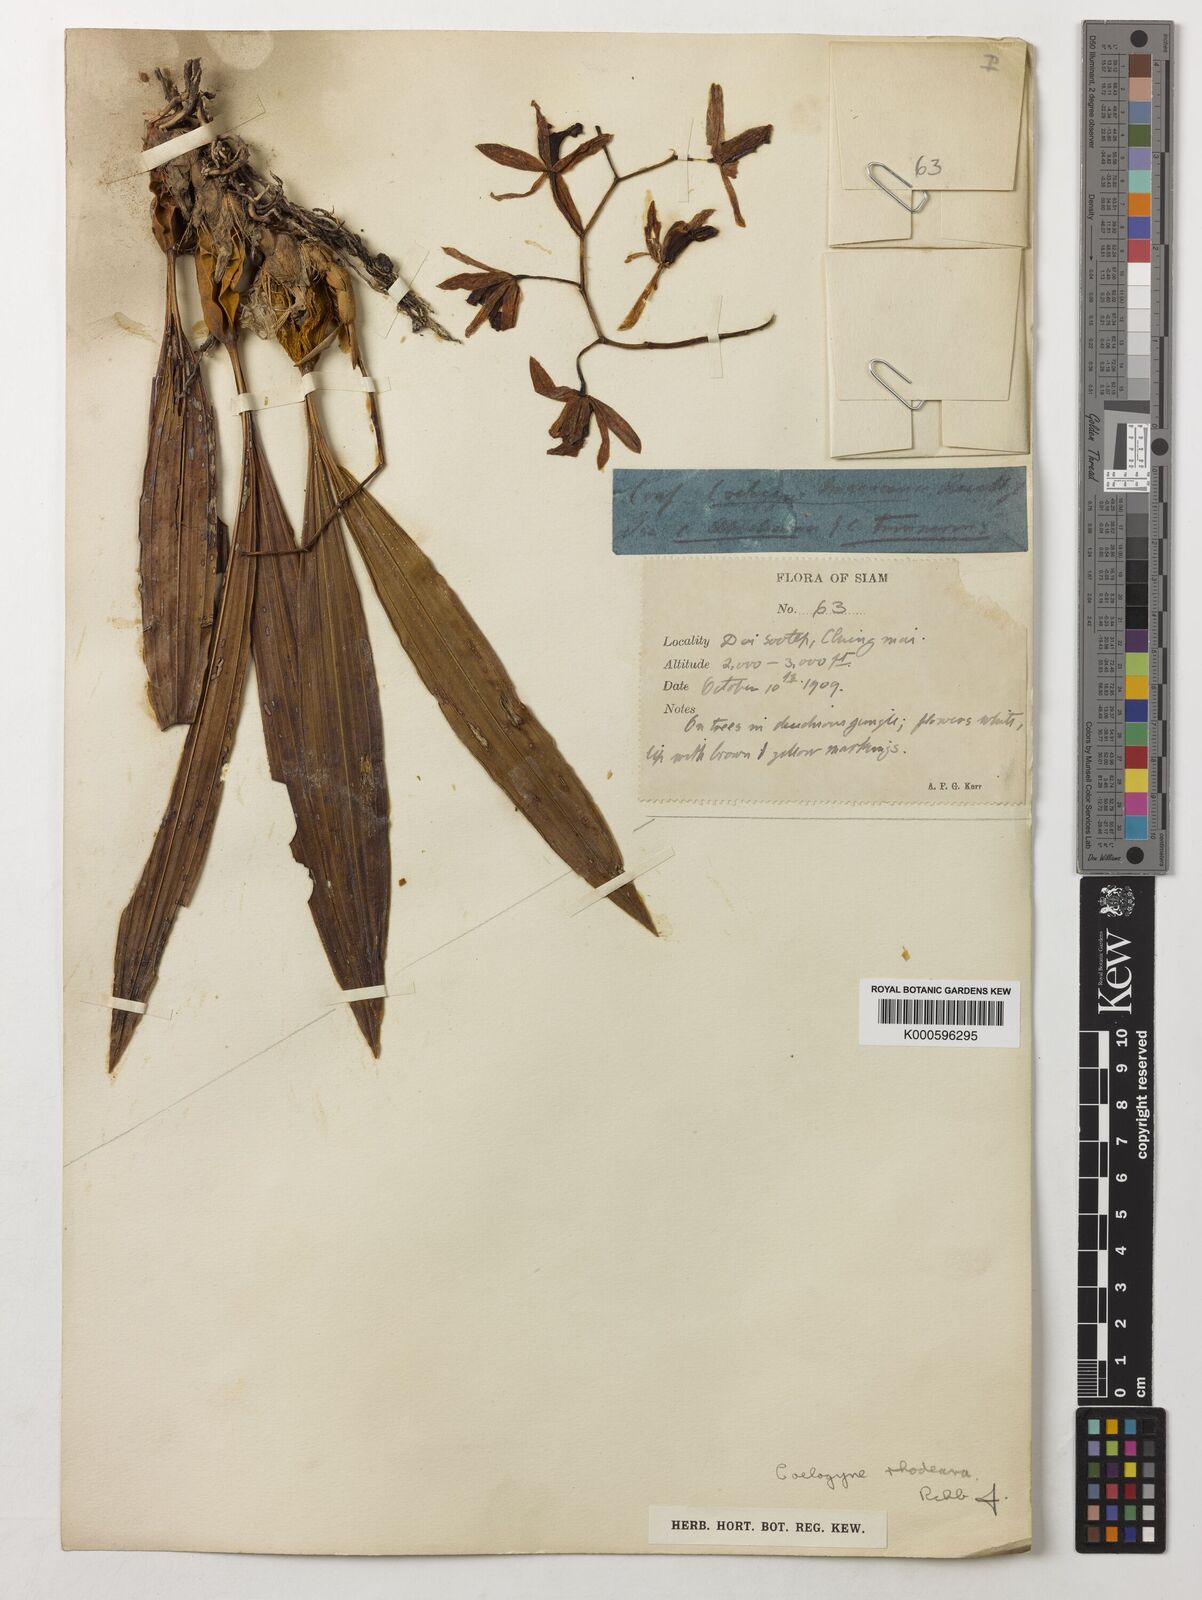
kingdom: Plantae
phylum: Tracheophyta
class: Liliopsida
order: Asparagales
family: Orchidaceae
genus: Coelogyne
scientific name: Coelogyne trinervis
